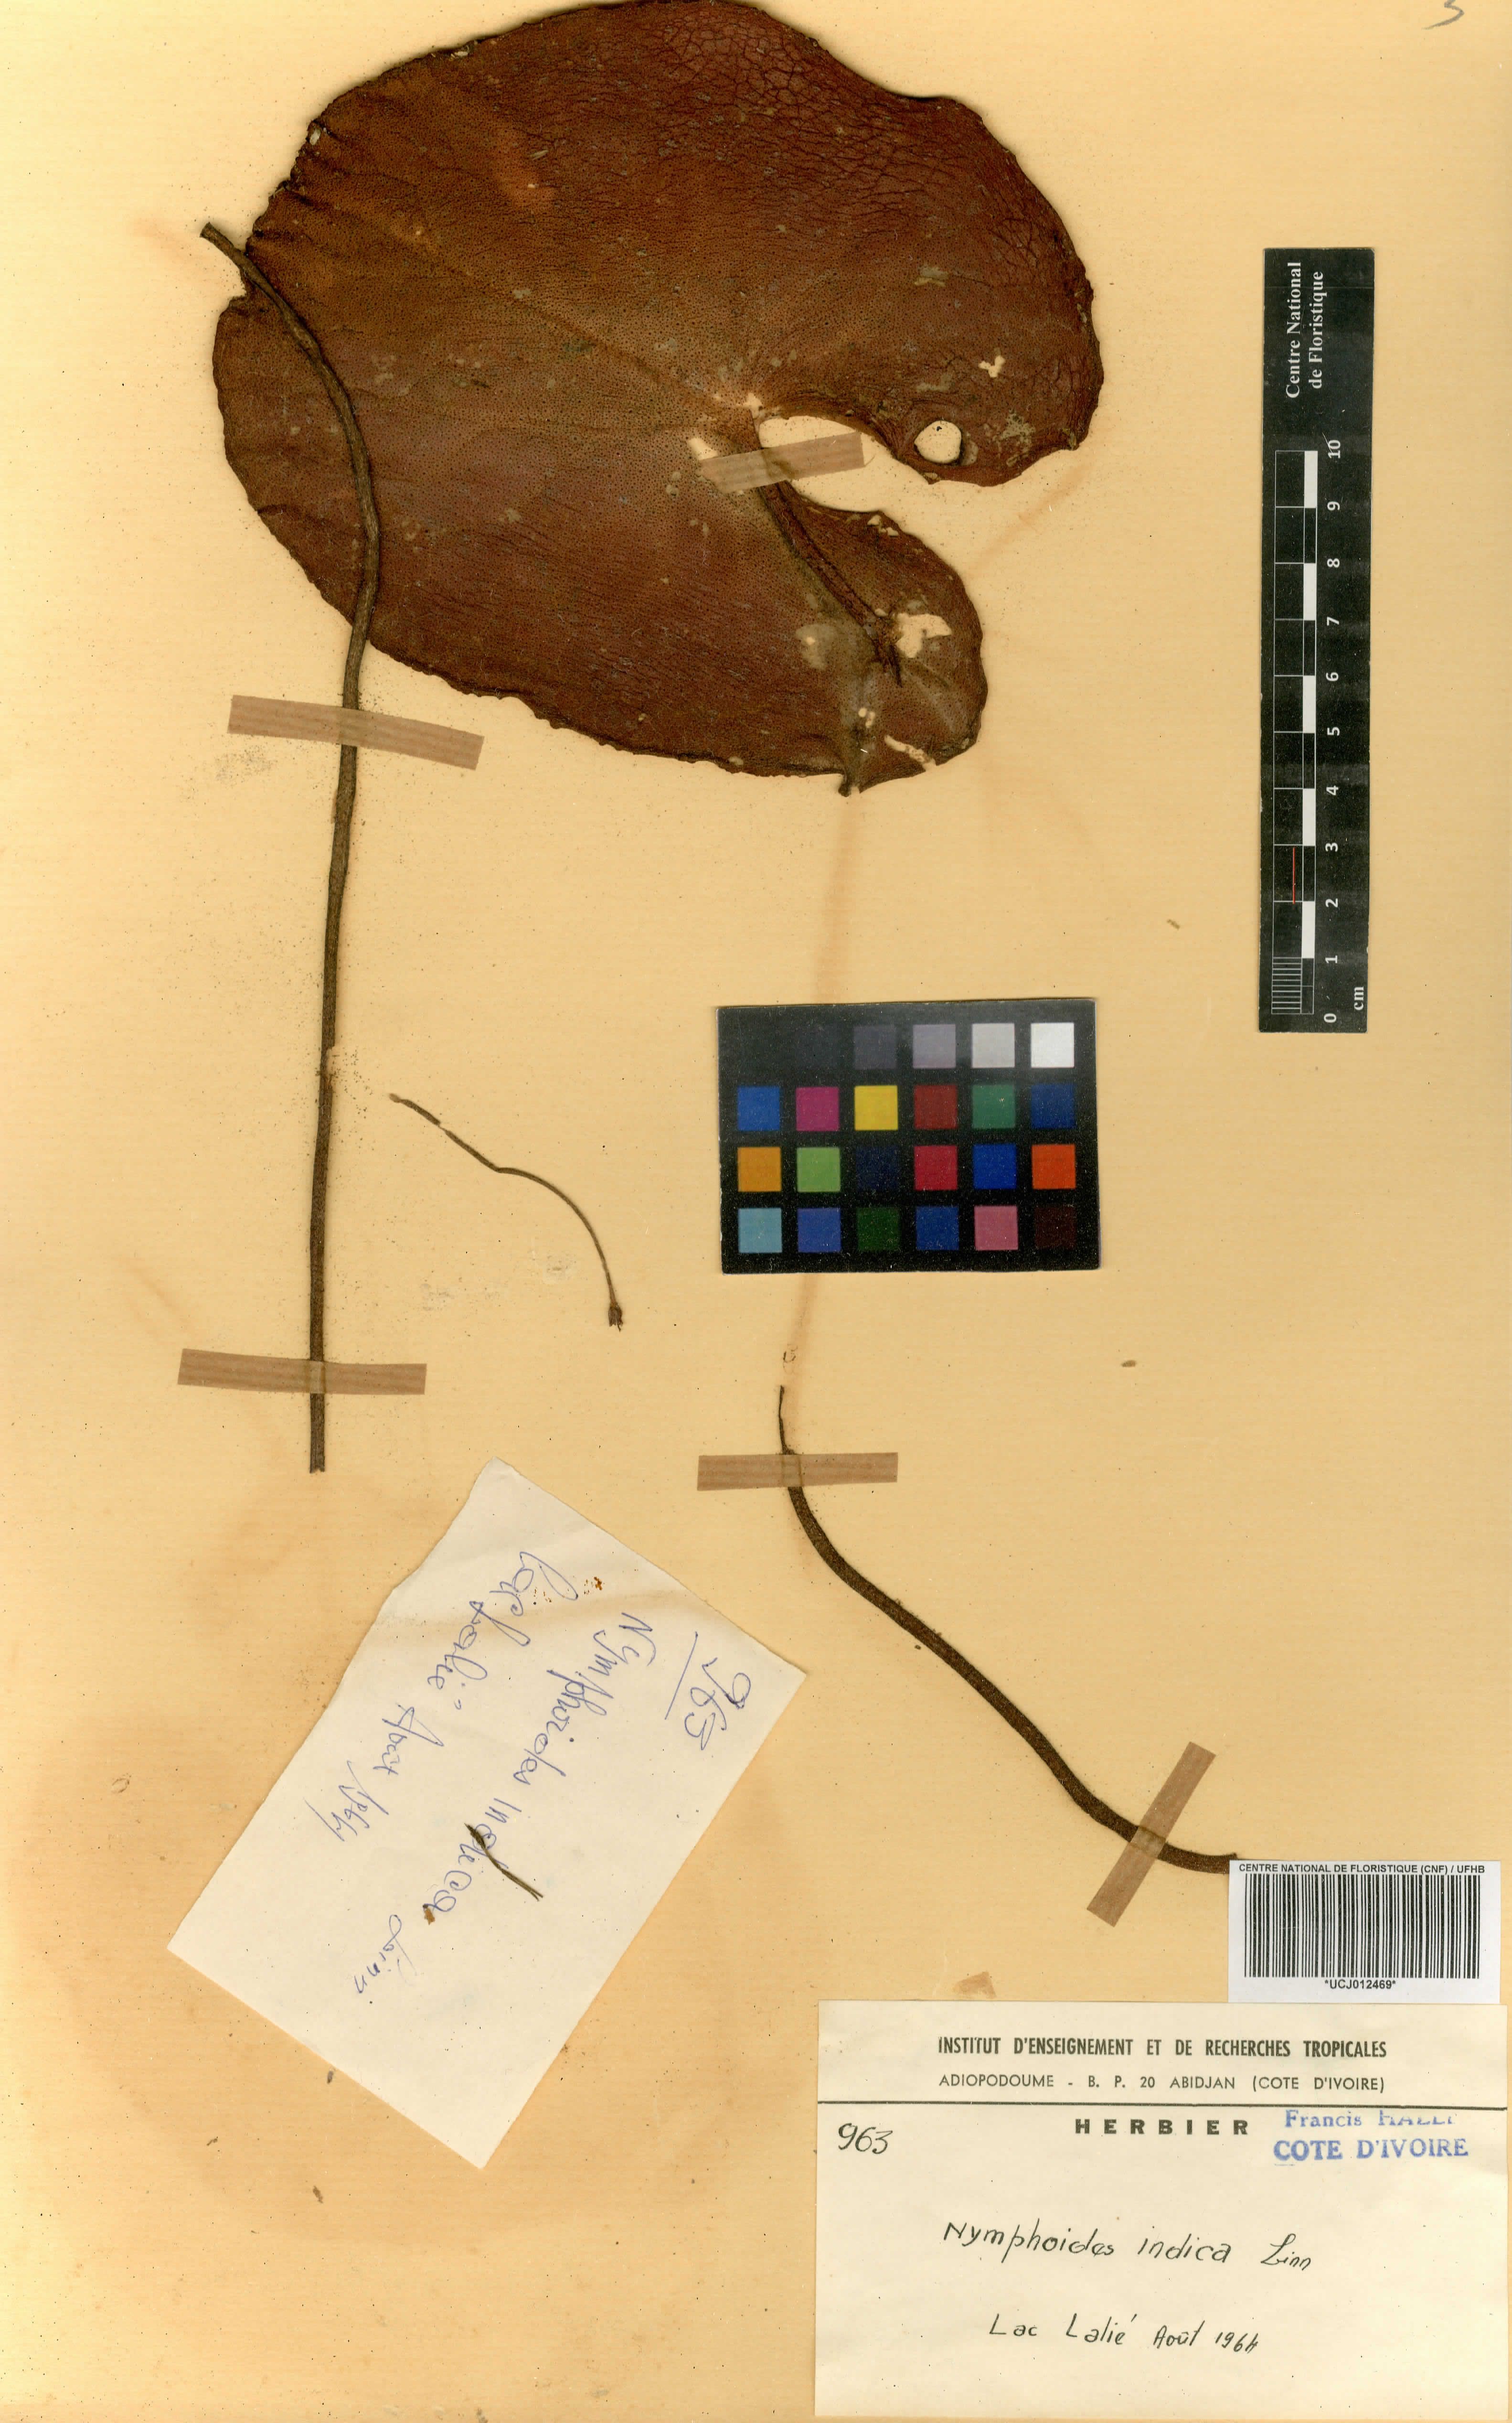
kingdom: Plantae
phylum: Tracheophyta
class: Magnoliopsida
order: Asterales
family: Menyanthaceae
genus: Nymphoides
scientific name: Nymphoides indica
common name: Water-snowflake
